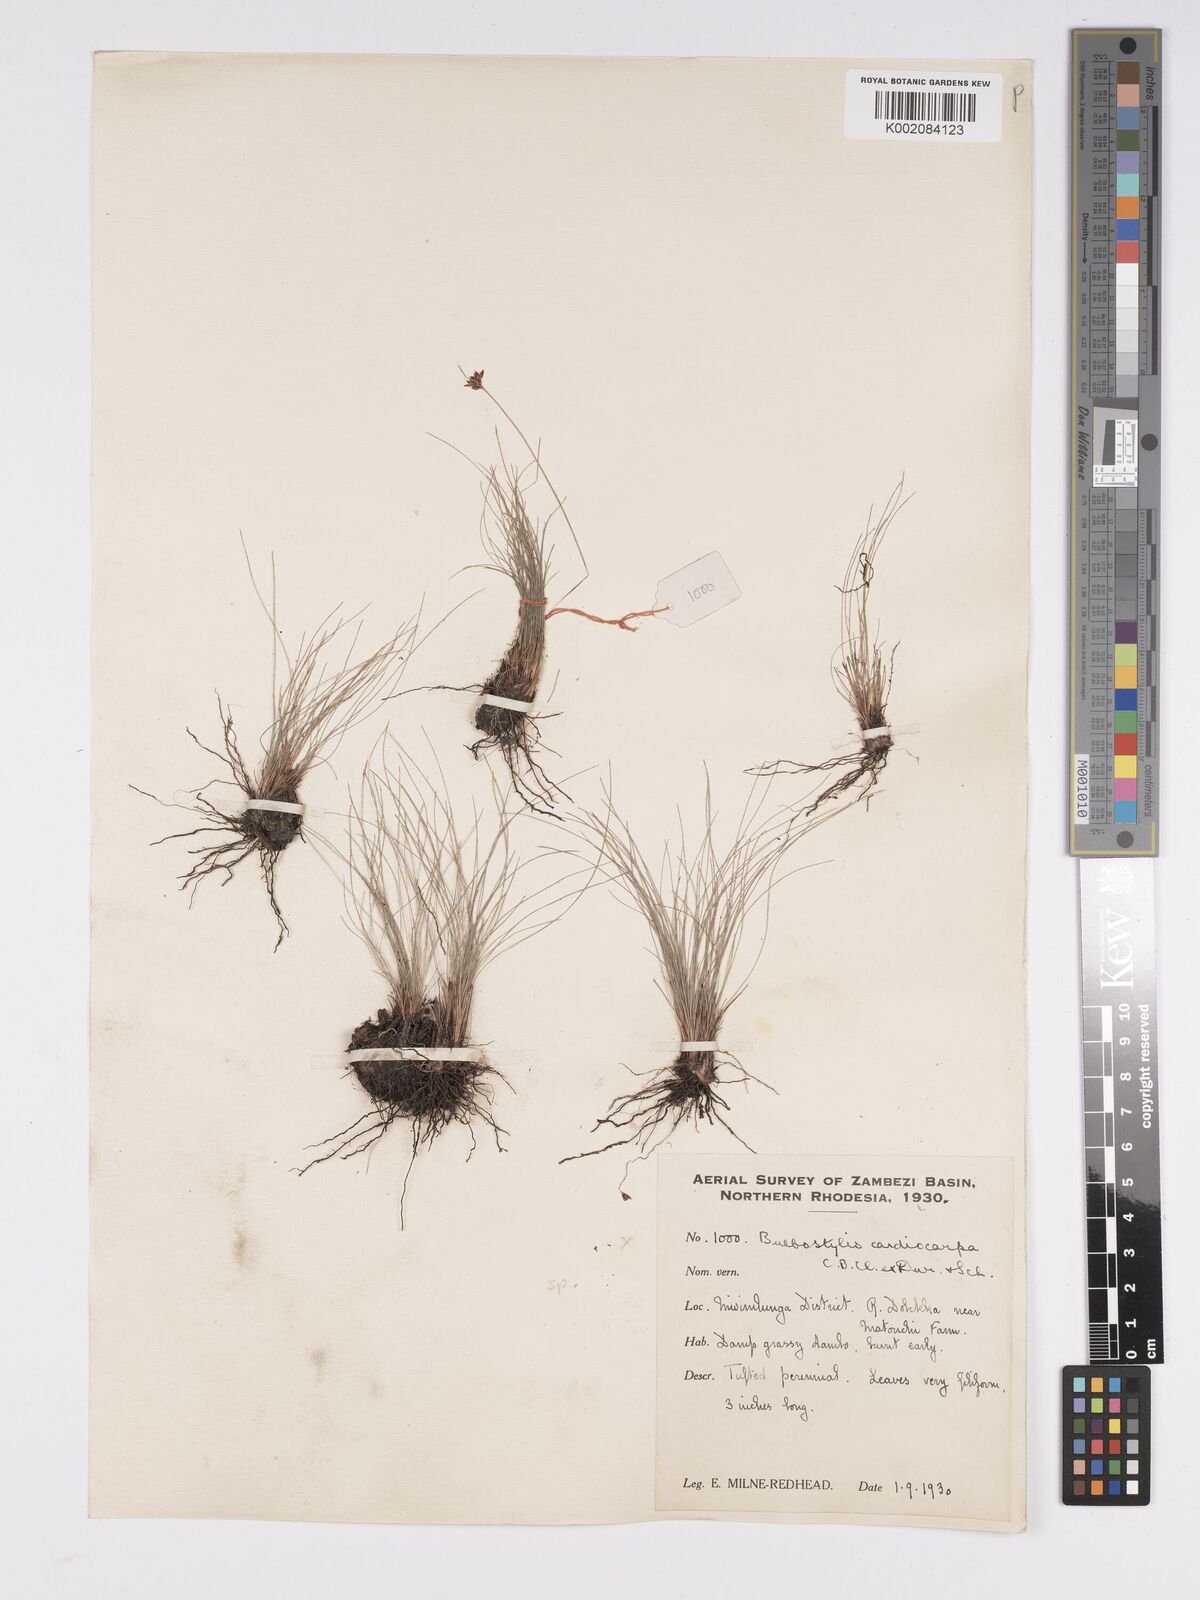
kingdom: Plantae
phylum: Tracheophyta
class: Liliopsida
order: Poales
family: Cyperaceae
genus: Bulbostylis
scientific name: Bulbostylis
